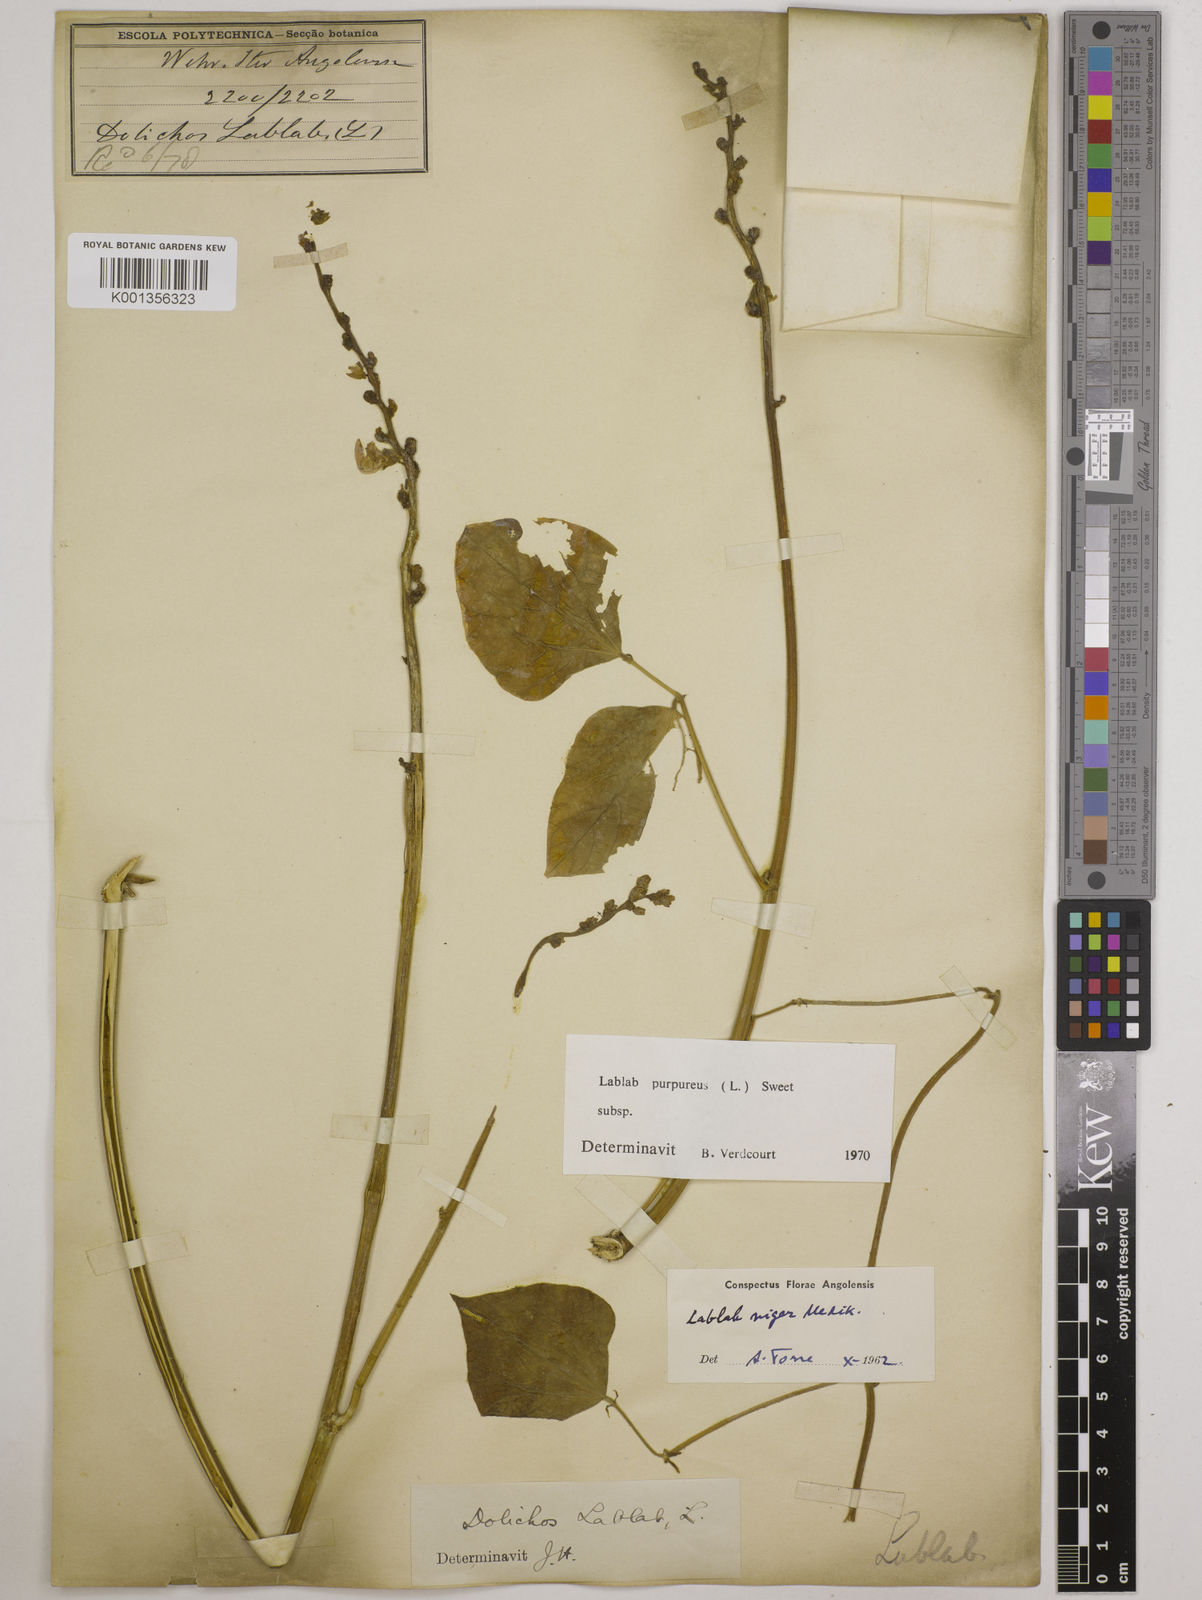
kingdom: Plantae
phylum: Tracheophyta
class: Magnoliopsida
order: Fabales
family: Fabaceae
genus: Lablab
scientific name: Lablab purpureus
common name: Lablab-bean
